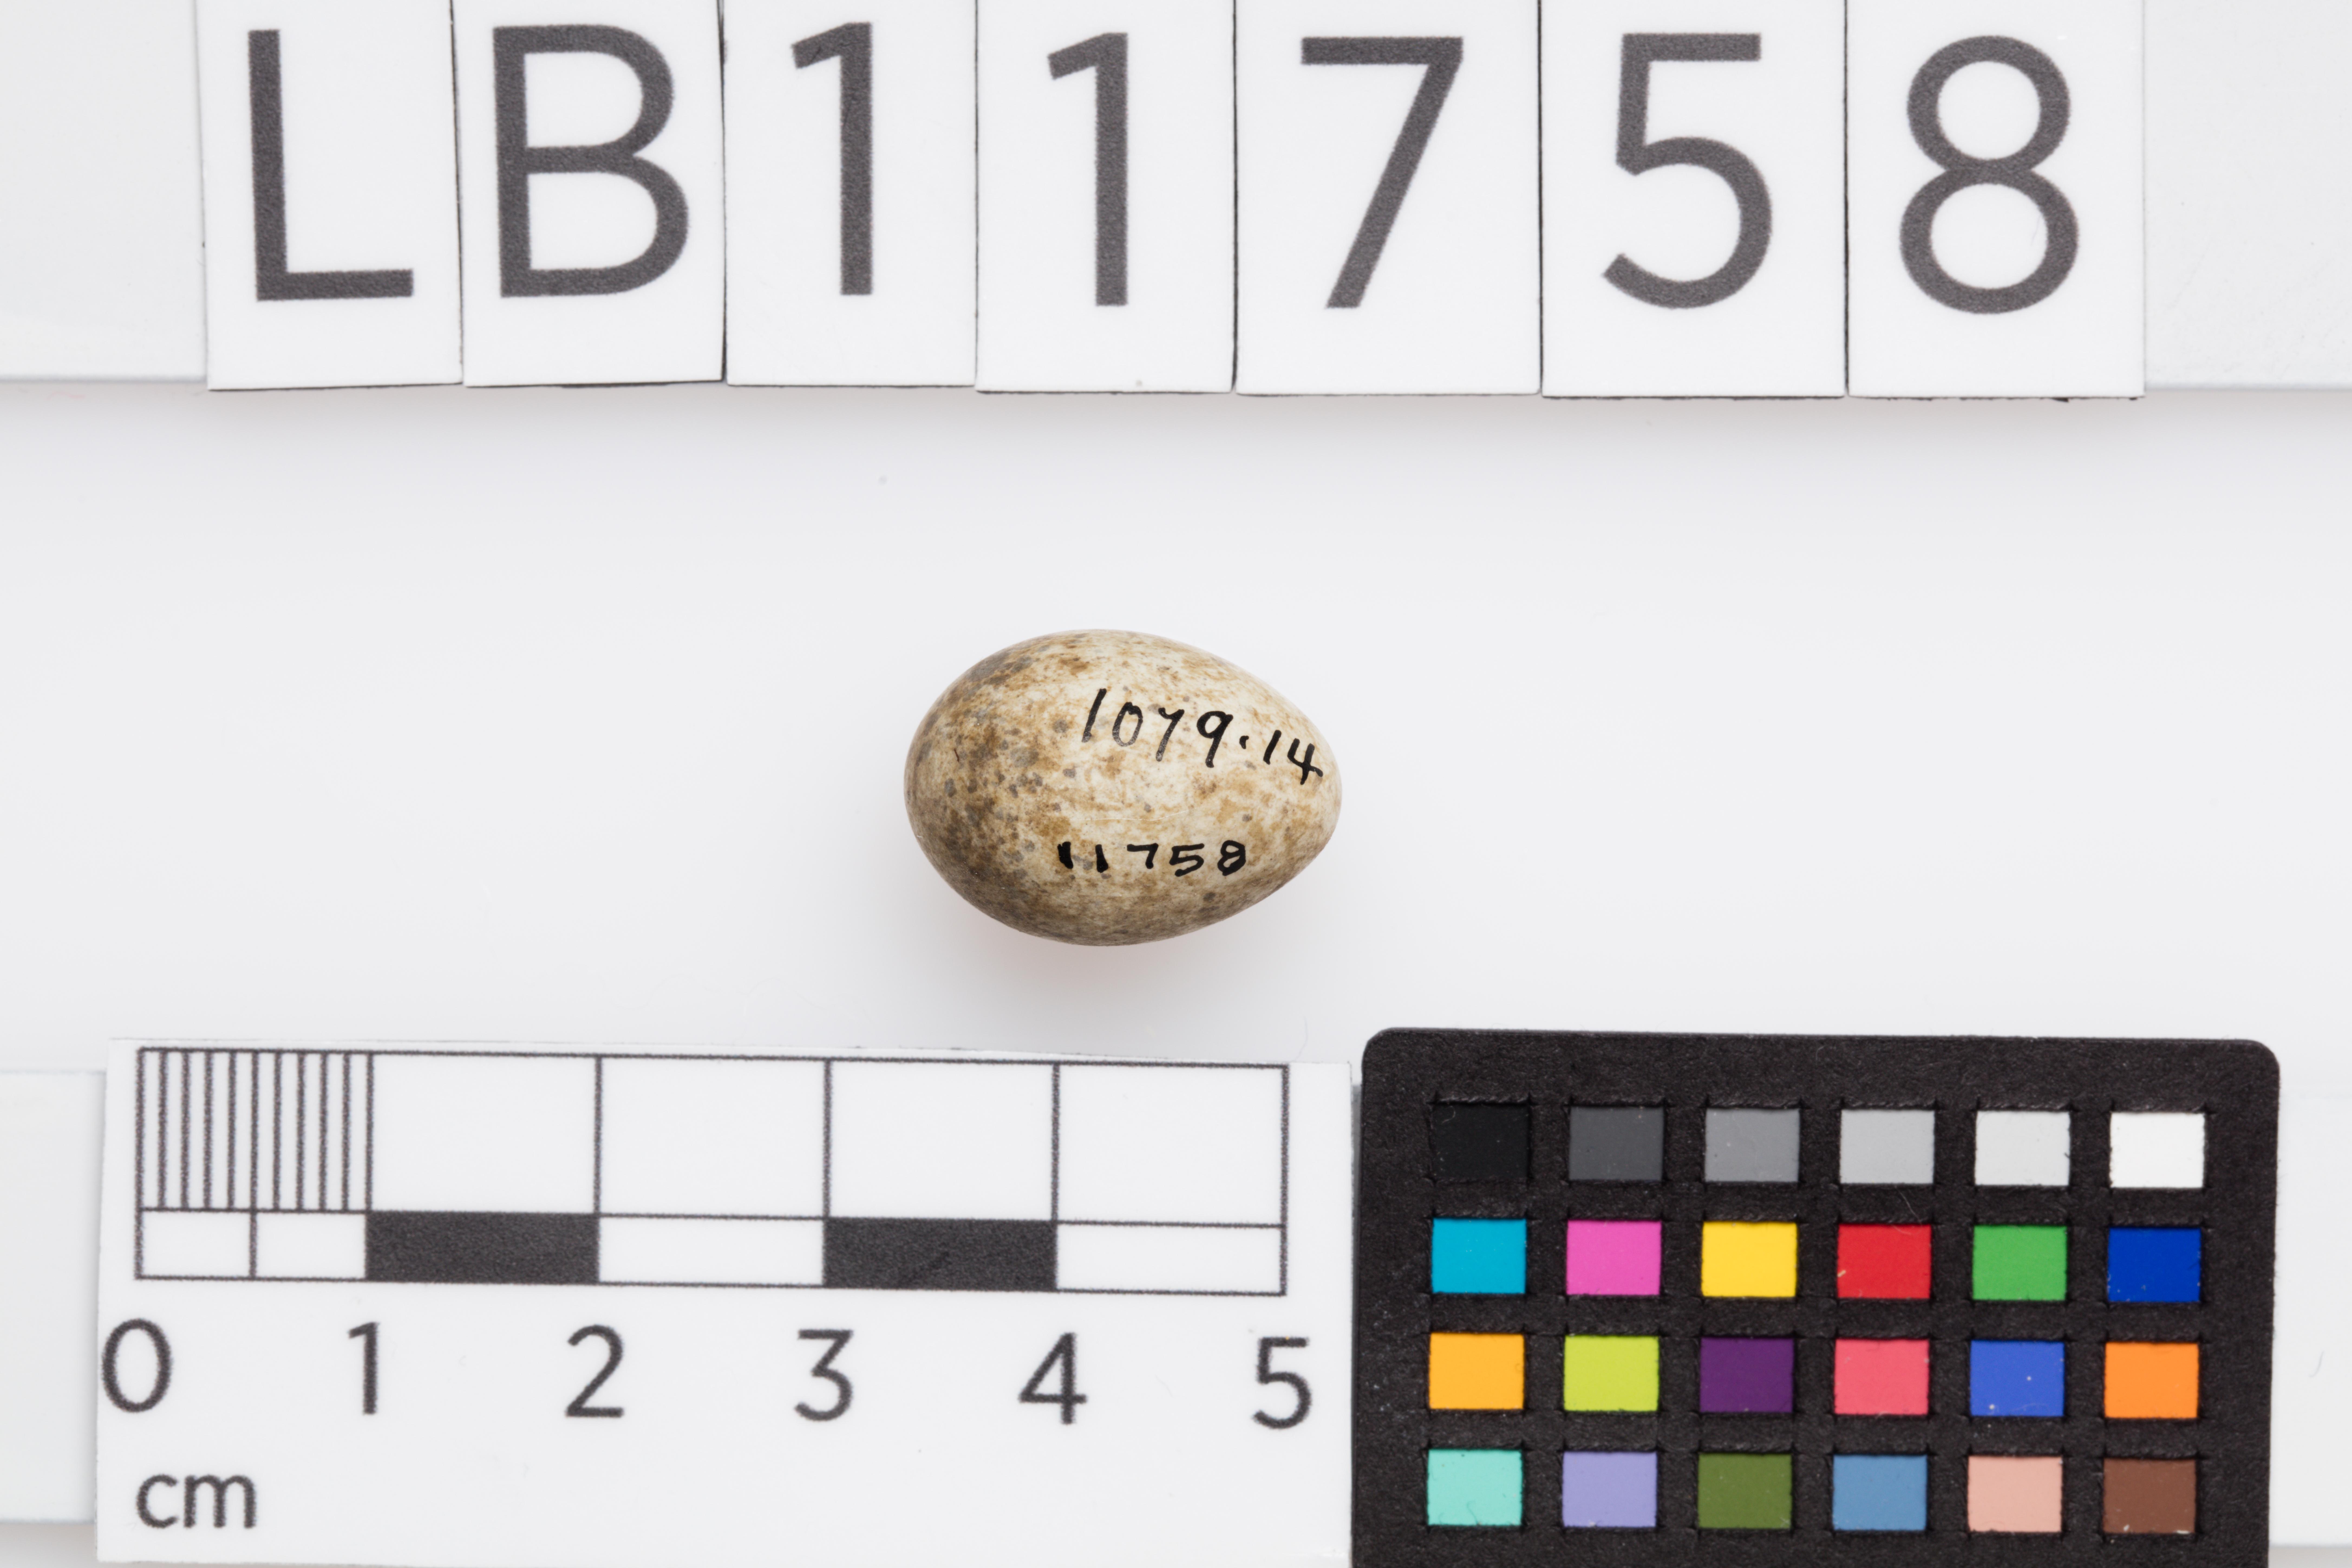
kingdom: Animalia
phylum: Chordata
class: Aves
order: Passeriformes
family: Sylviidae
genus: Sylvia
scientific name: Sylvia communis
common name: Common whitethroat
